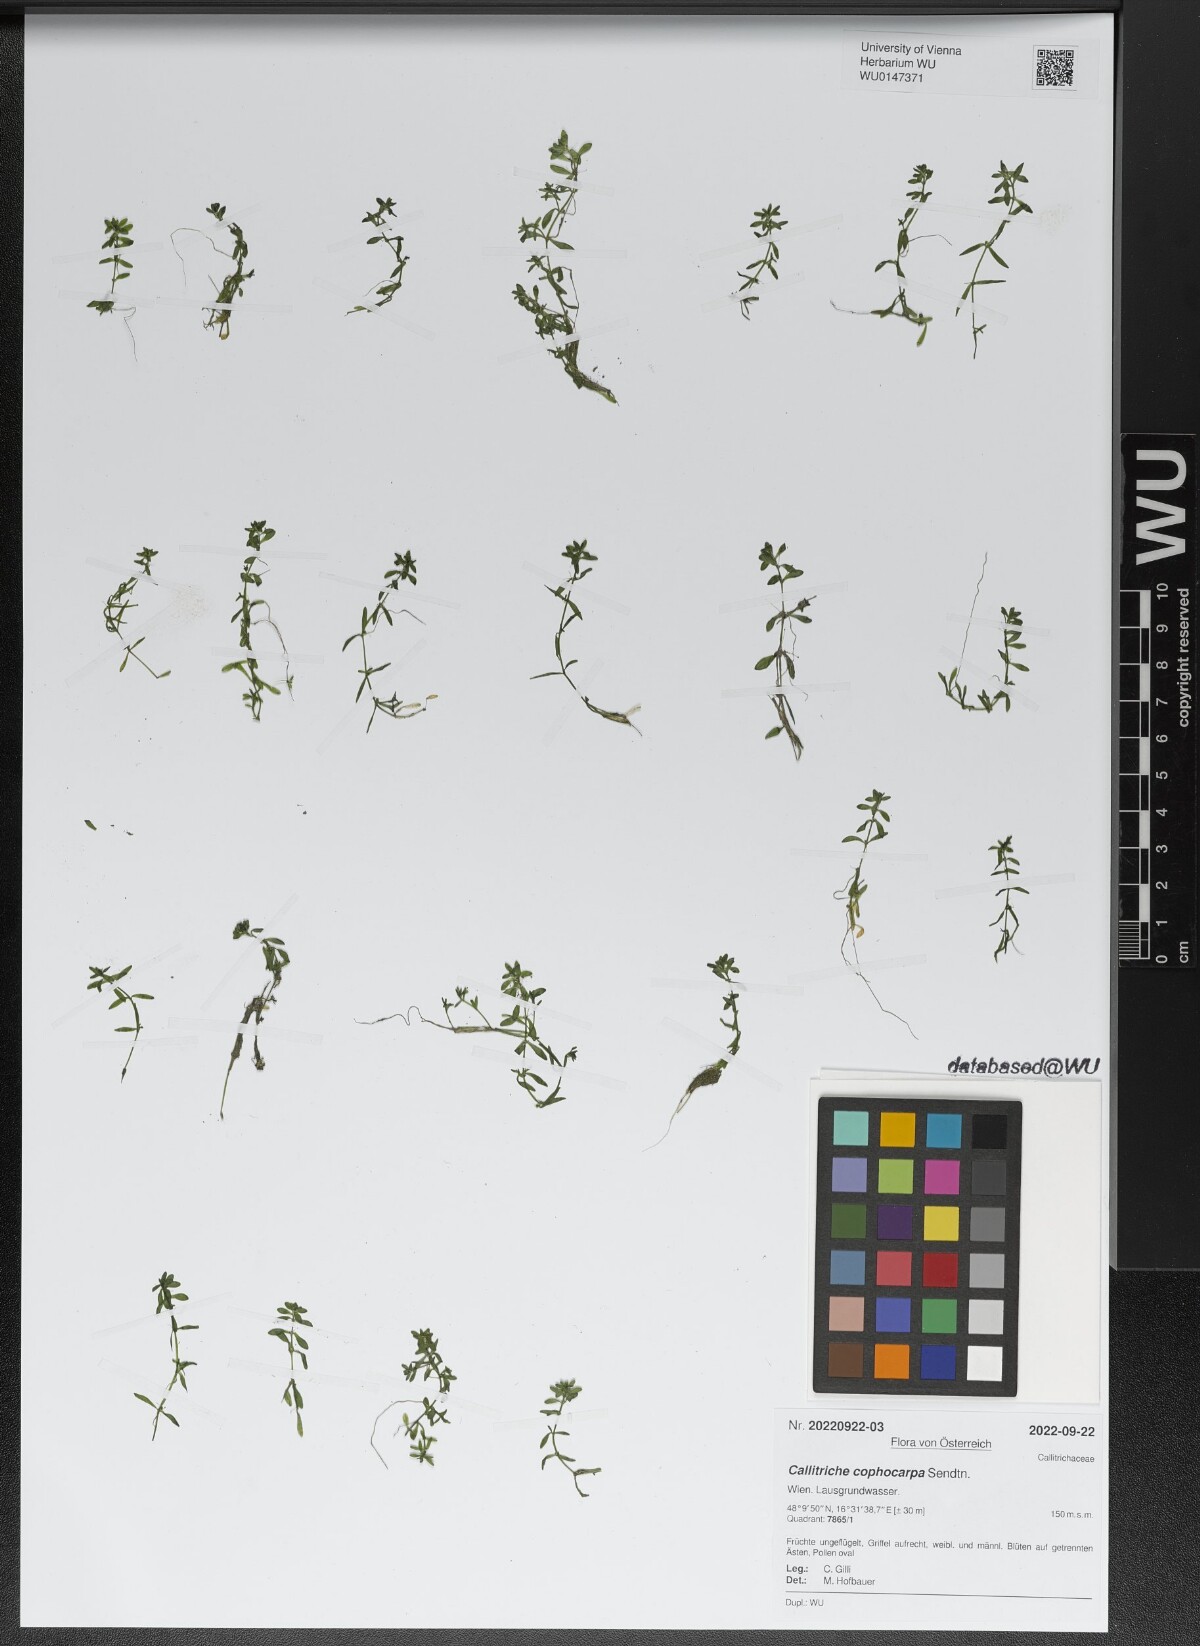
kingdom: Plantae
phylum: Tracheophyta
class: Magnoliopsida
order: Lamiales
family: Plantaginaceae
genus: Callitriche
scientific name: Callitriche cophocarpa
